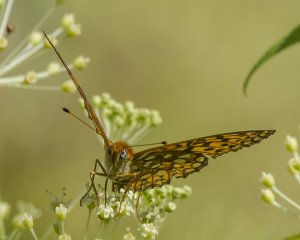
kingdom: Animalia
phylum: Arthropoda
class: Insecta
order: Lepidoptera
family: Nymphalidae
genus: Speyeria
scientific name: Speyeria atlantis
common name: Atlantis Fritillary
